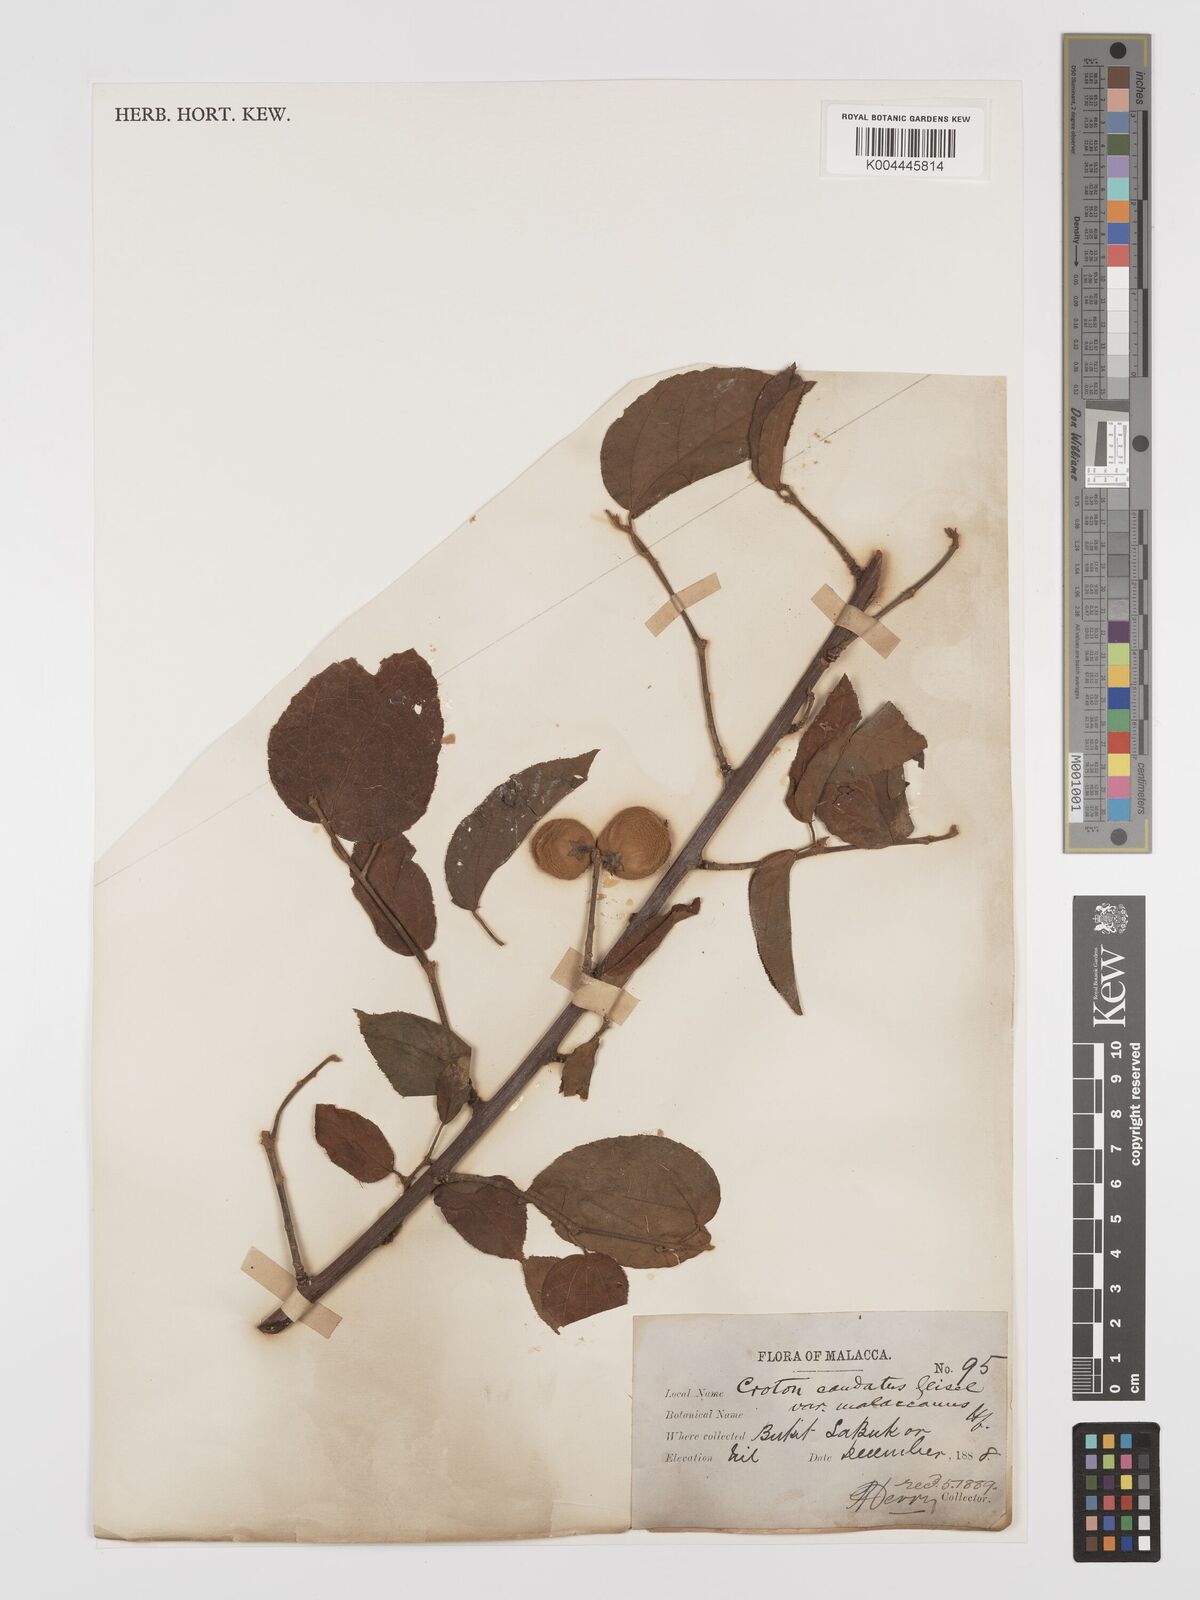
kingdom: Plantae
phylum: Tracheophyta
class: Magnoliopsida
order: Malpighiales
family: Euphorbiaceae
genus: Croton
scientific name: Croton caudatus
